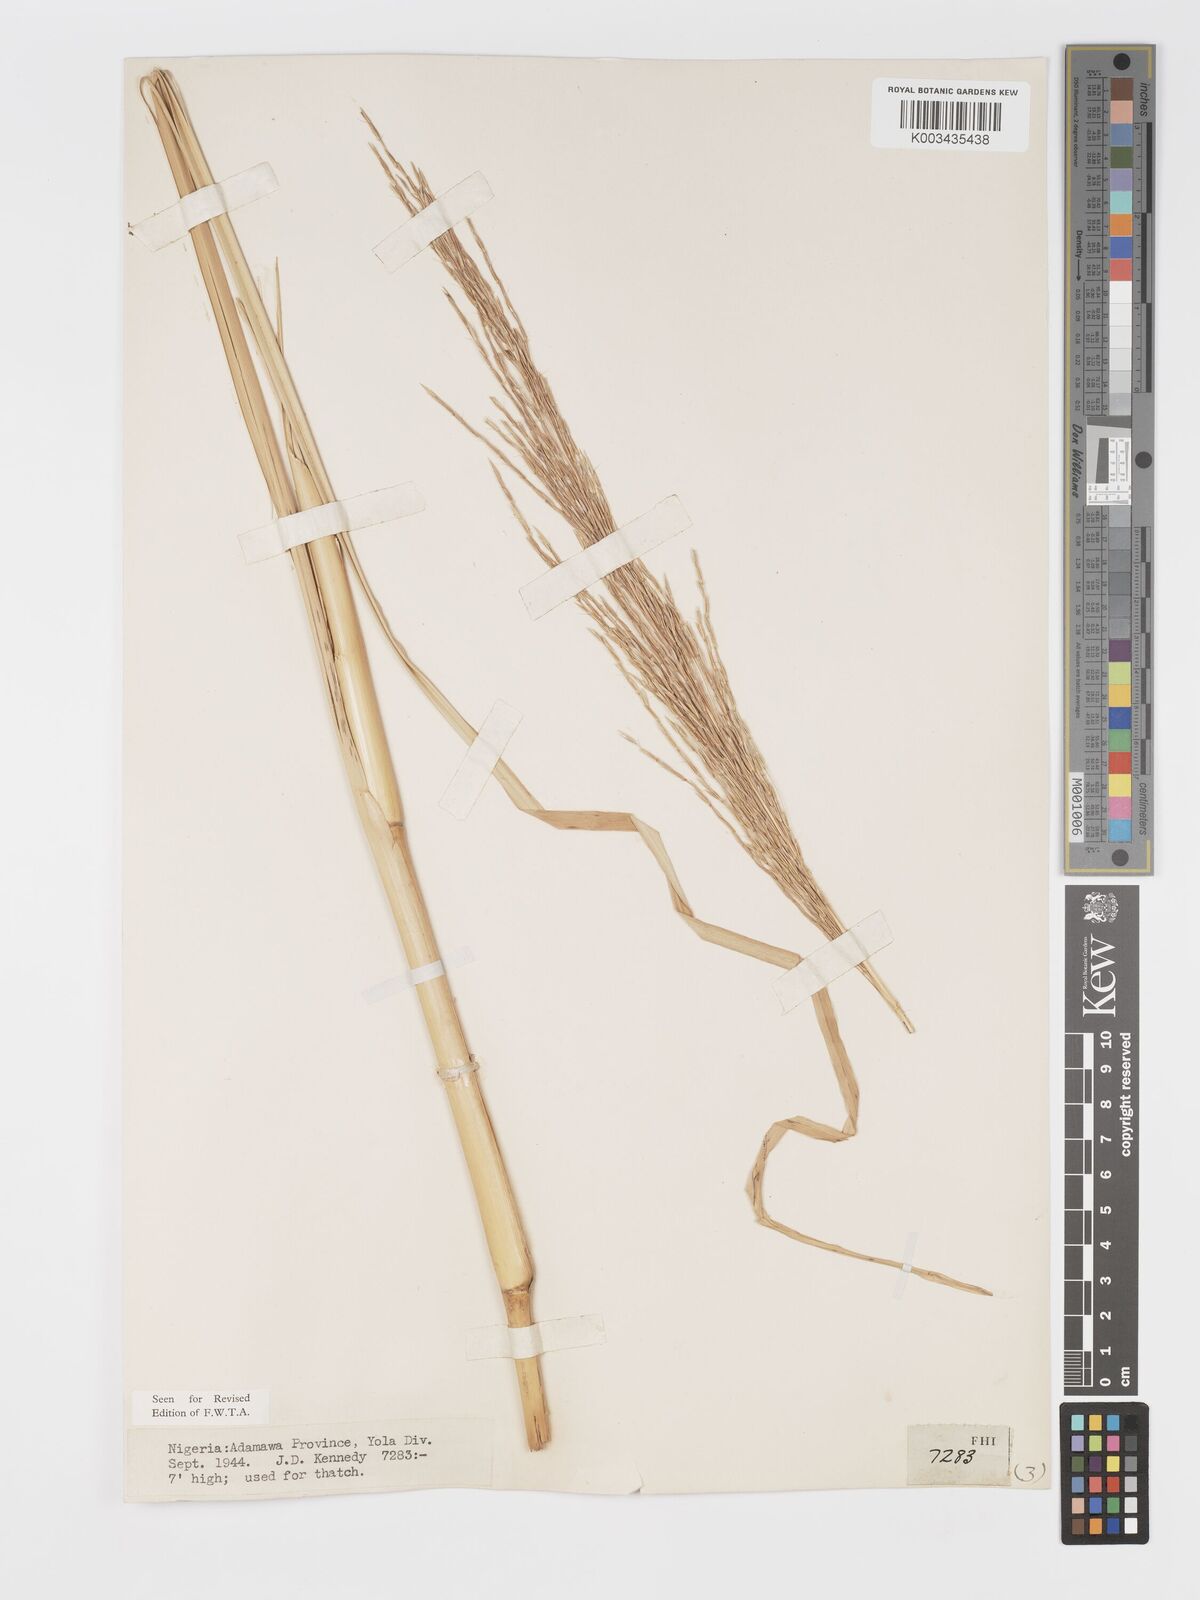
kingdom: Plantae
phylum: Tracheophyta
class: Liliopsida
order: Poales
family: Poaceae
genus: Chrysopogon
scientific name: Chrysopogon nigritanus
